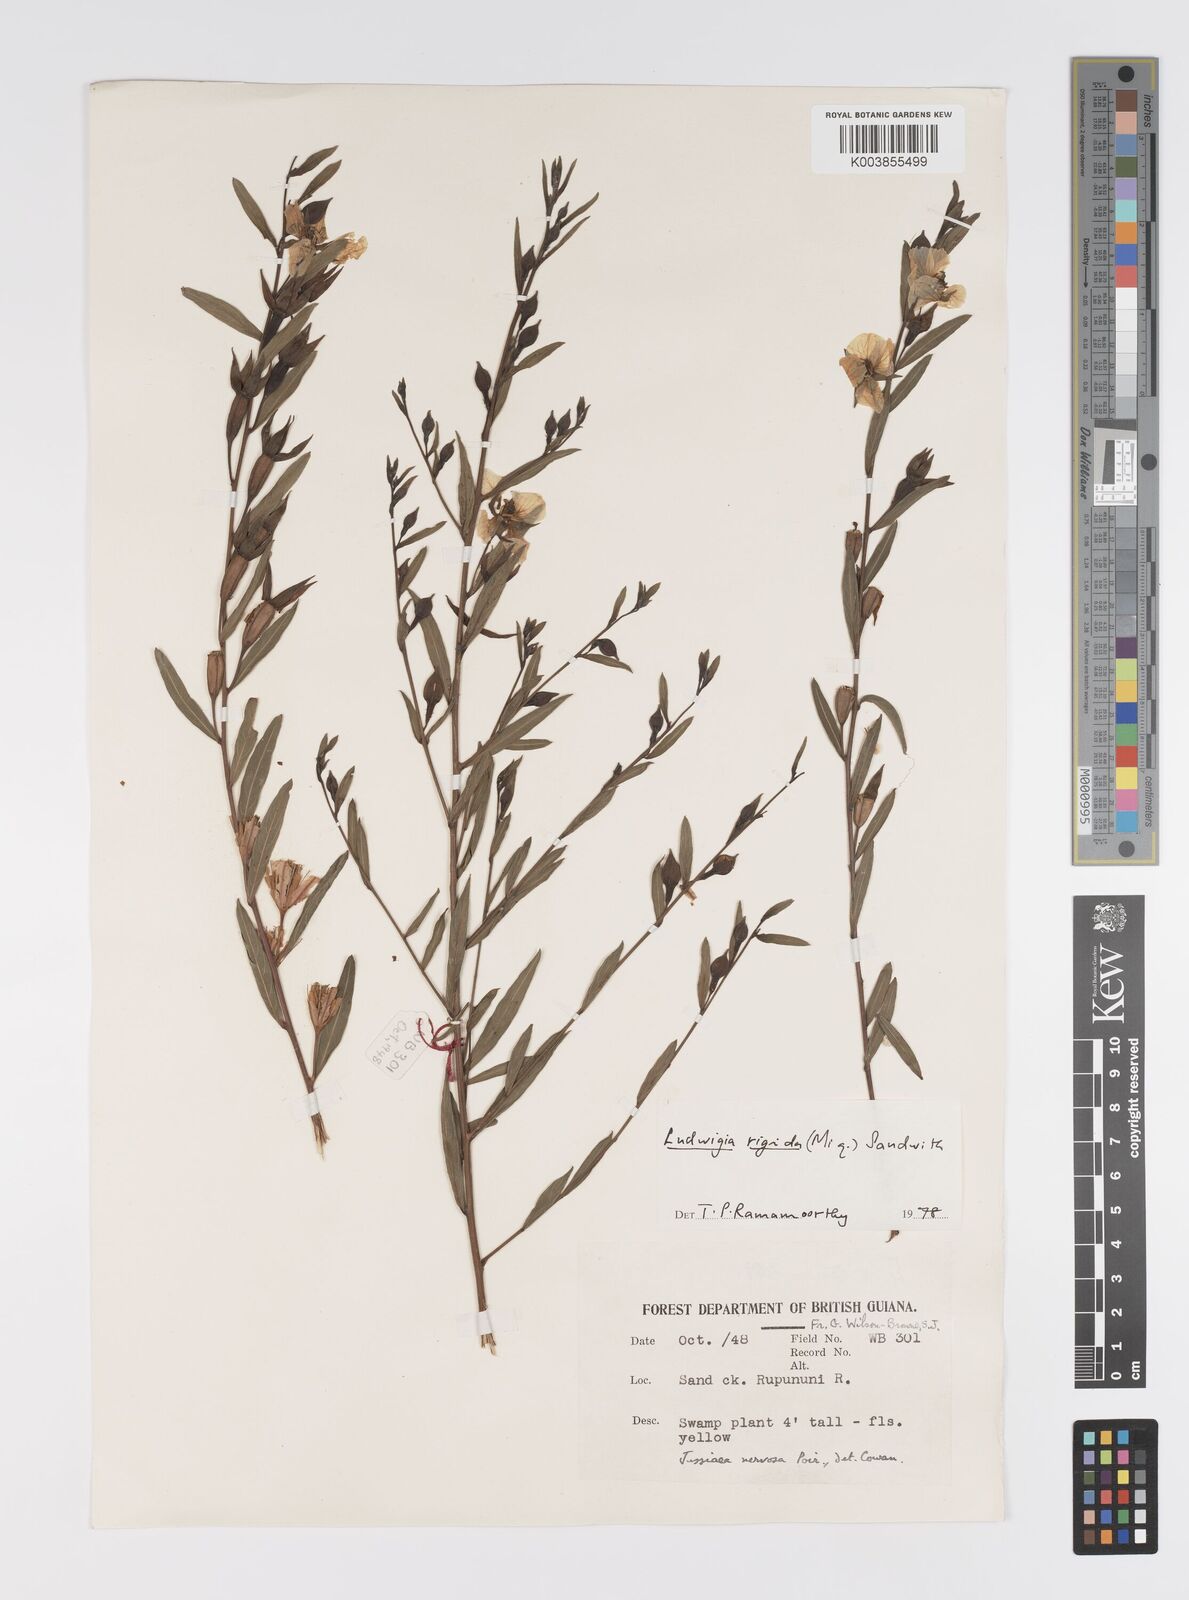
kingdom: Plantae
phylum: Tracheophyta
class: Magnoliopsida
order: Myrtales
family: Onagraceae
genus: Ludwigia
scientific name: Ludwigia rigida
